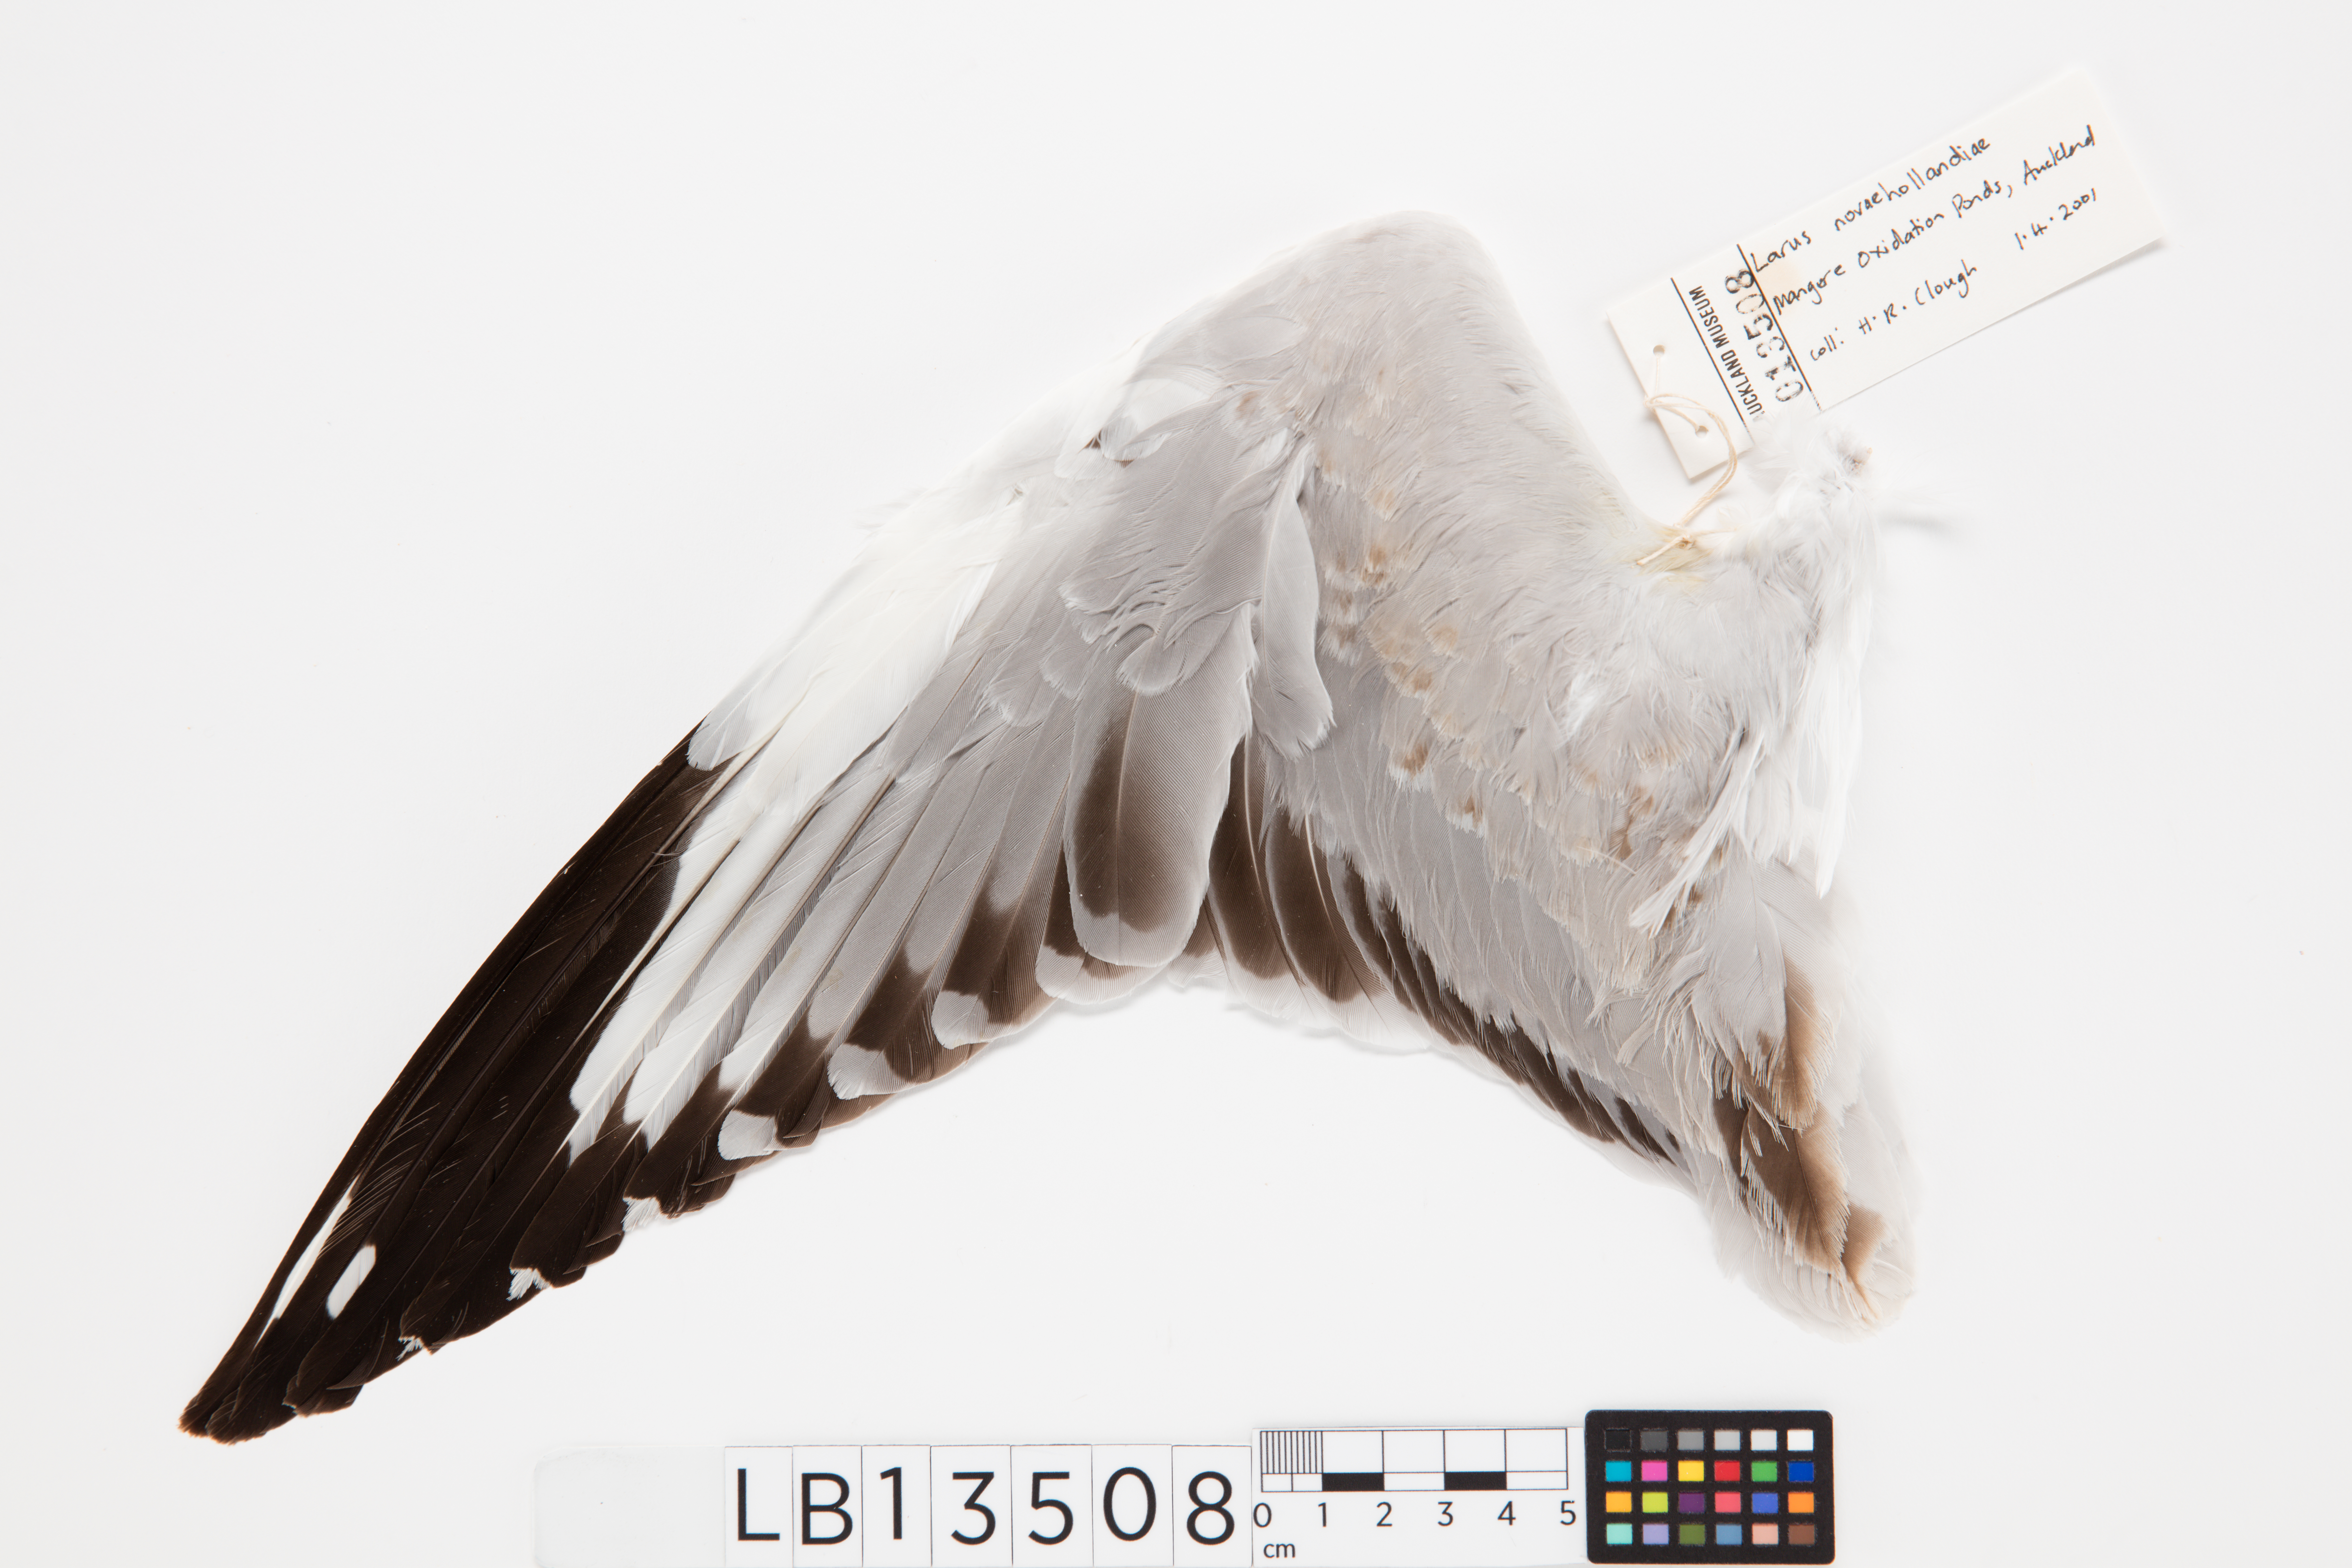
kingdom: Animalia
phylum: Chordata
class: Aves
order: Charadriiformes
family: Laridae
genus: Chroicocephalus
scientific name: Chroicocephalus novaehollandiae
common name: Silver gull
